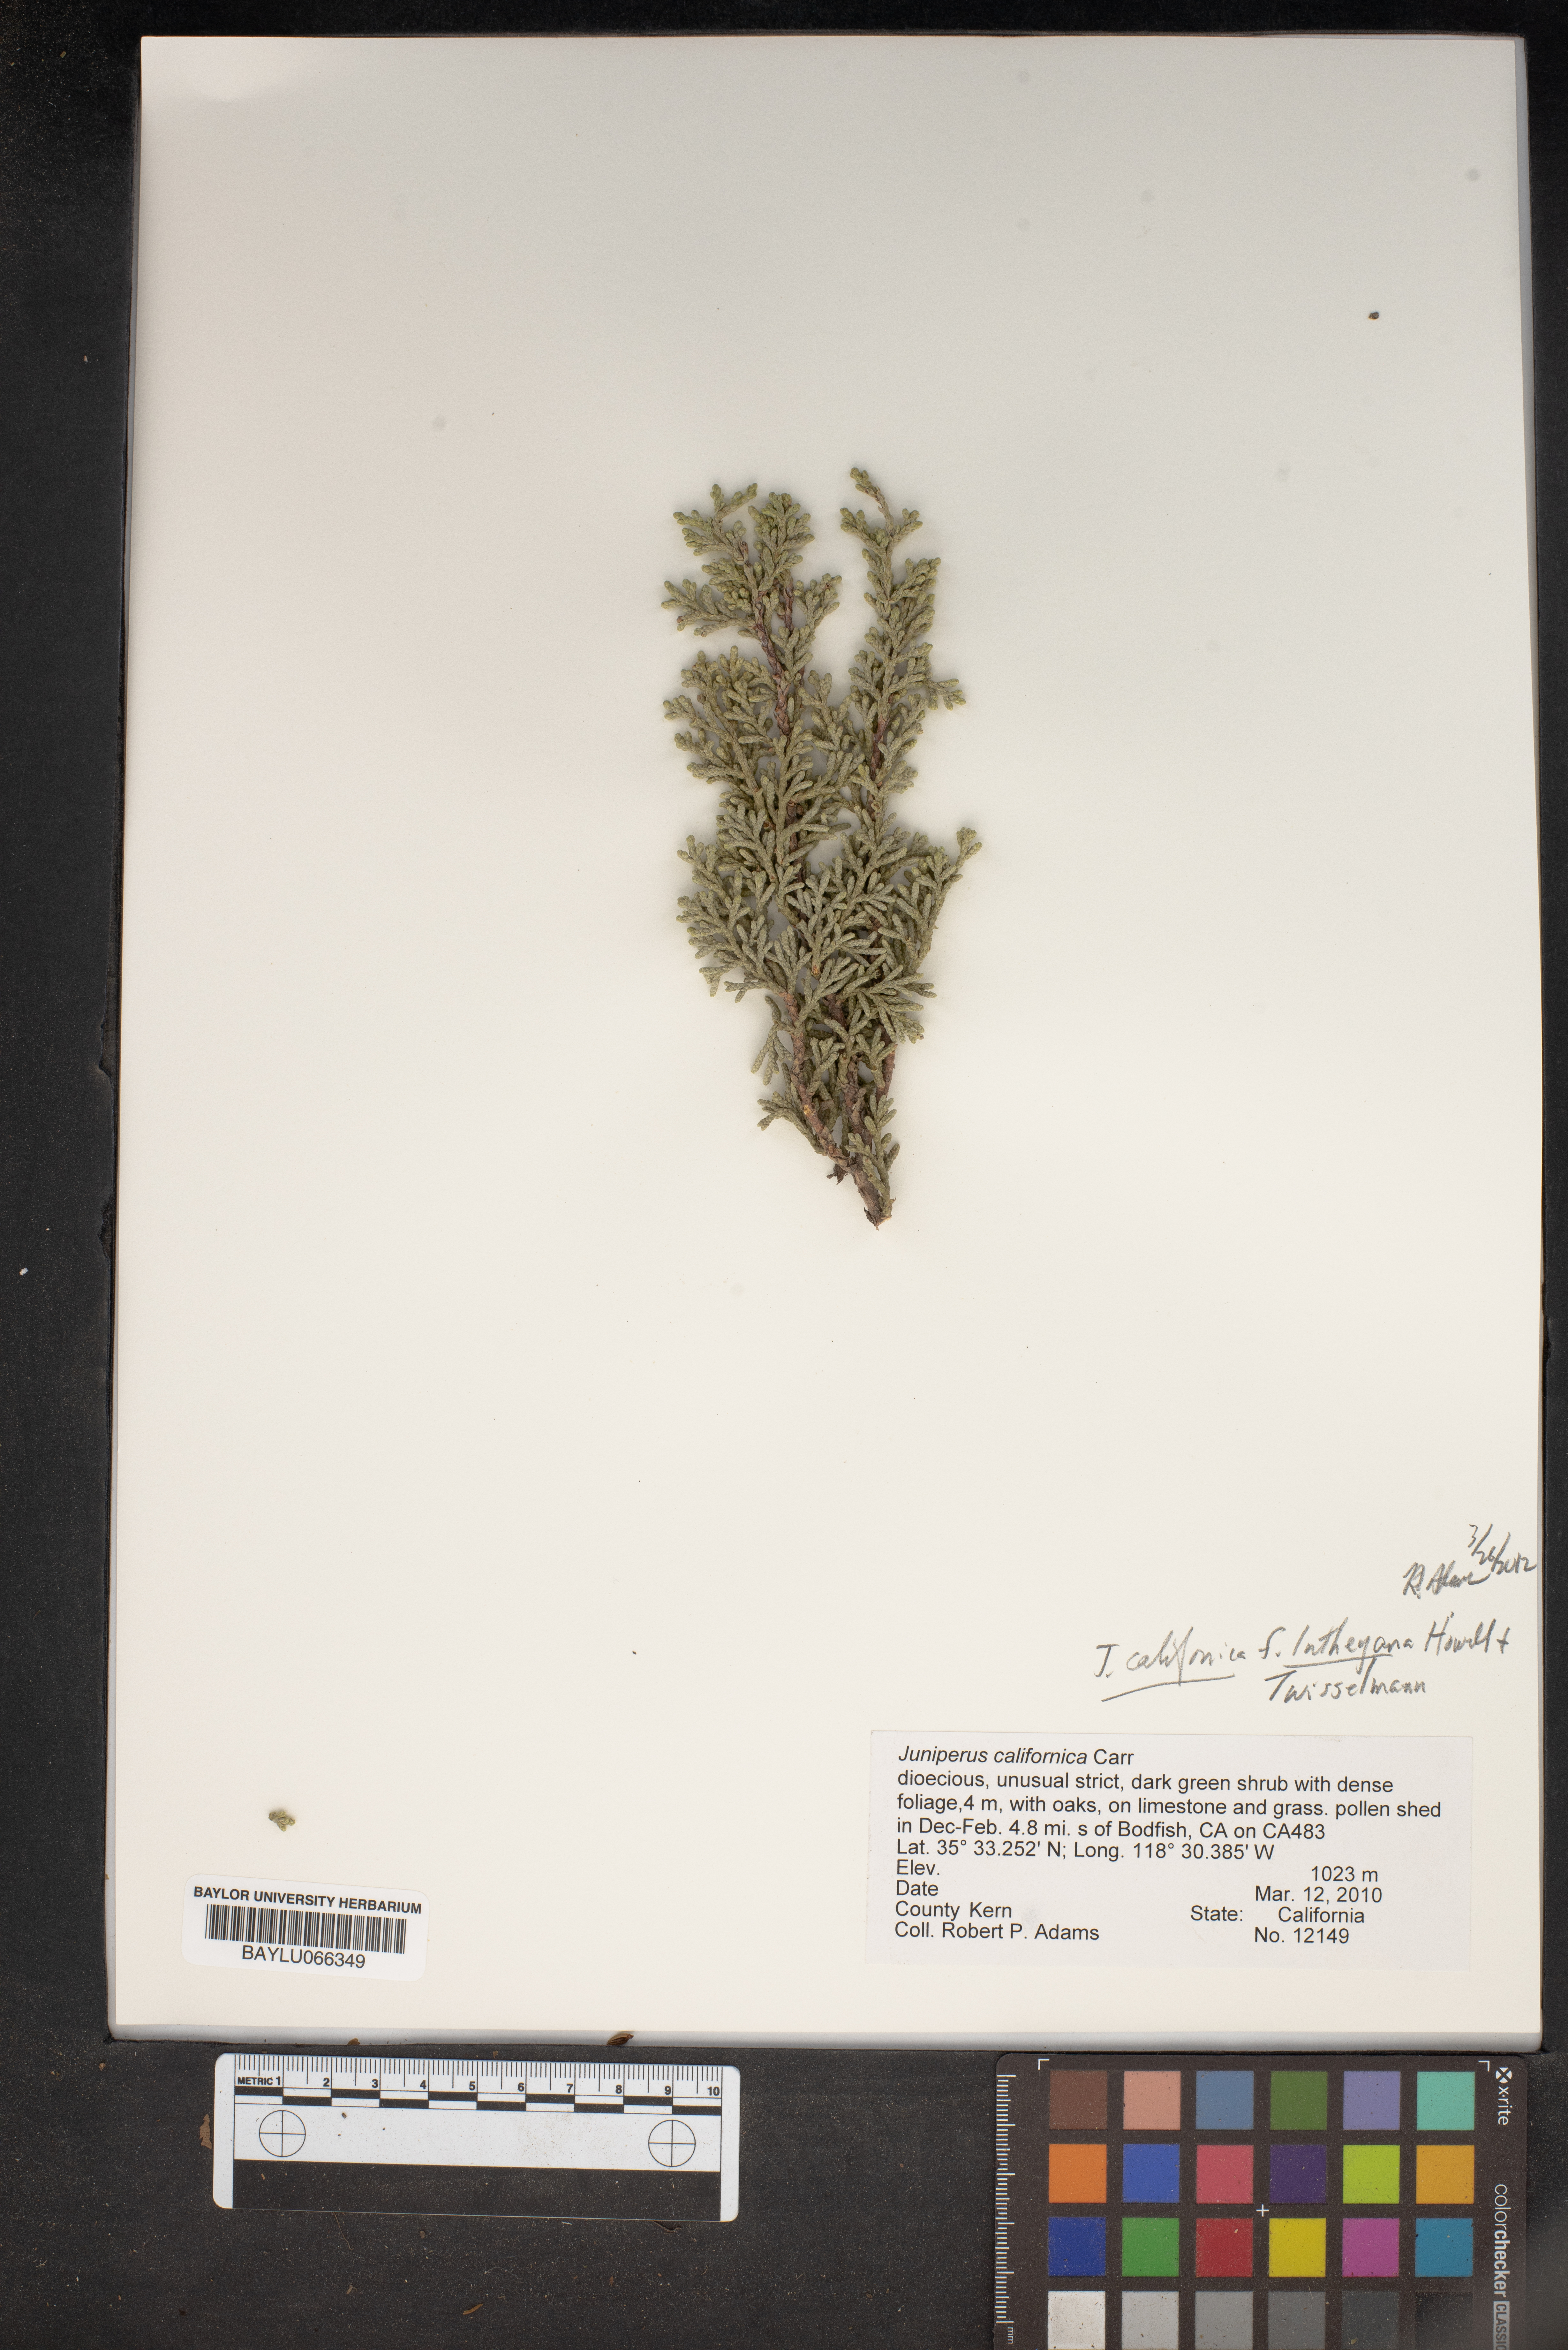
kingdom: Plantae
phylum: Tracheophyta
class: Pinopsida
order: Pinales
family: Cupressaceae
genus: Juniperus
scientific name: Juniperus californica
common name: California juniper
